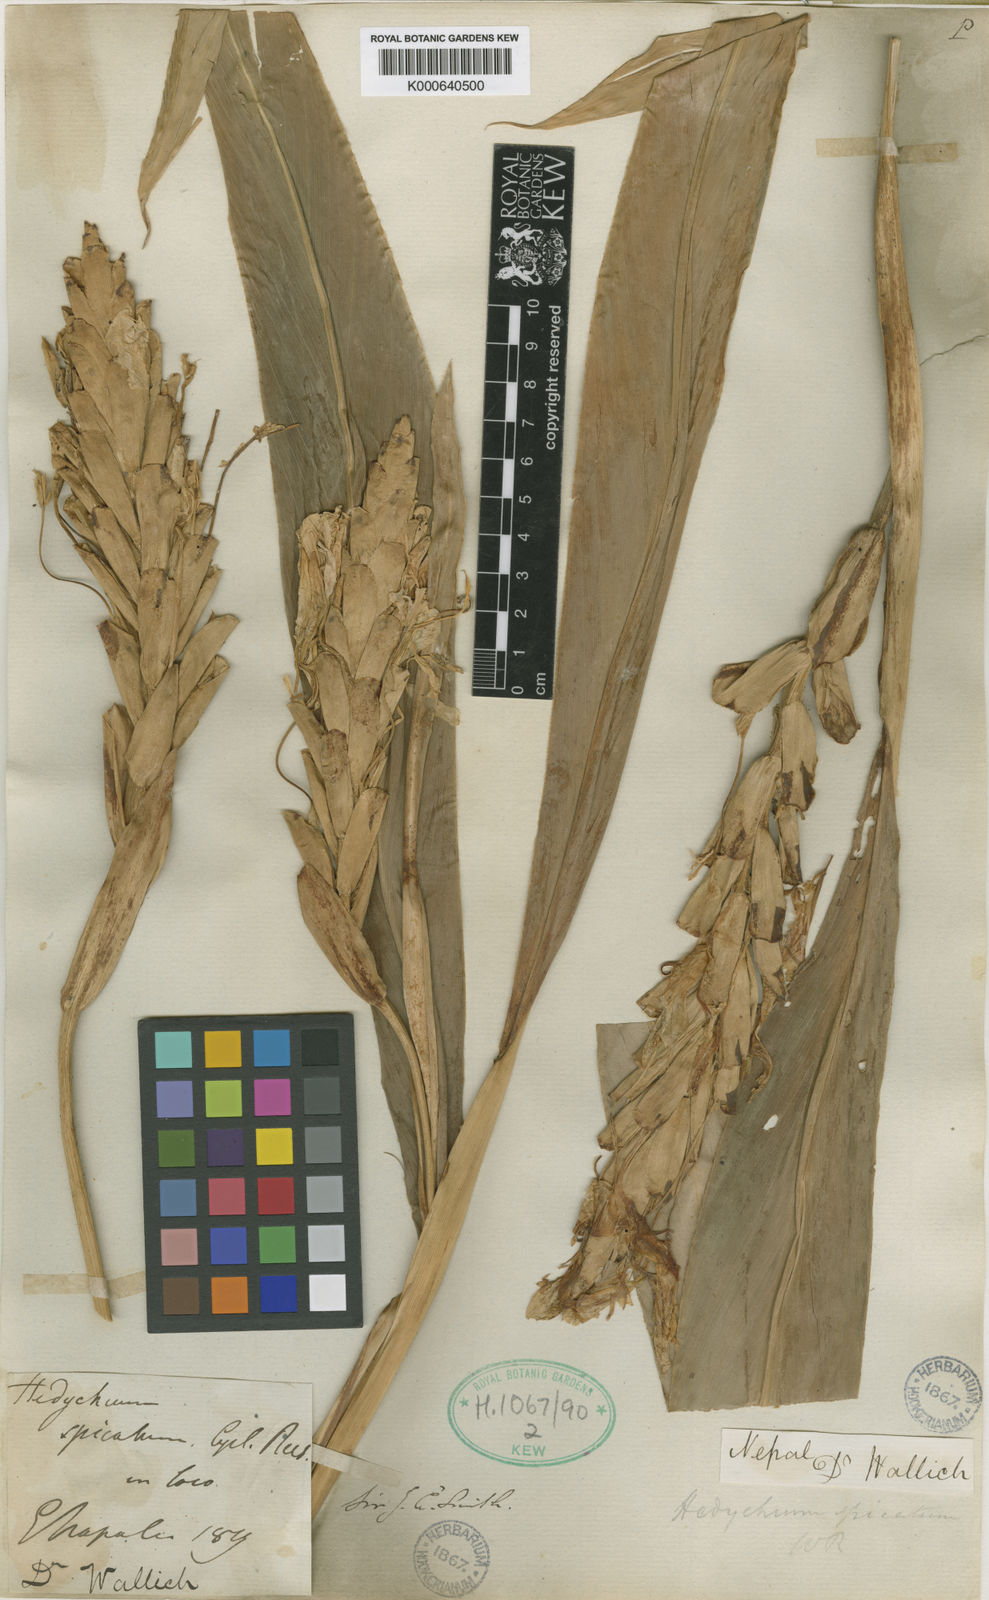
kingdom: Plantae
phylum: Tracheophyta
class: Liliopsida
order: Zingiberales
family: Zingiberaceae
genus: Hedychium
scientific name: Hedychium spicatum
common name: Spiked ginger-lily
